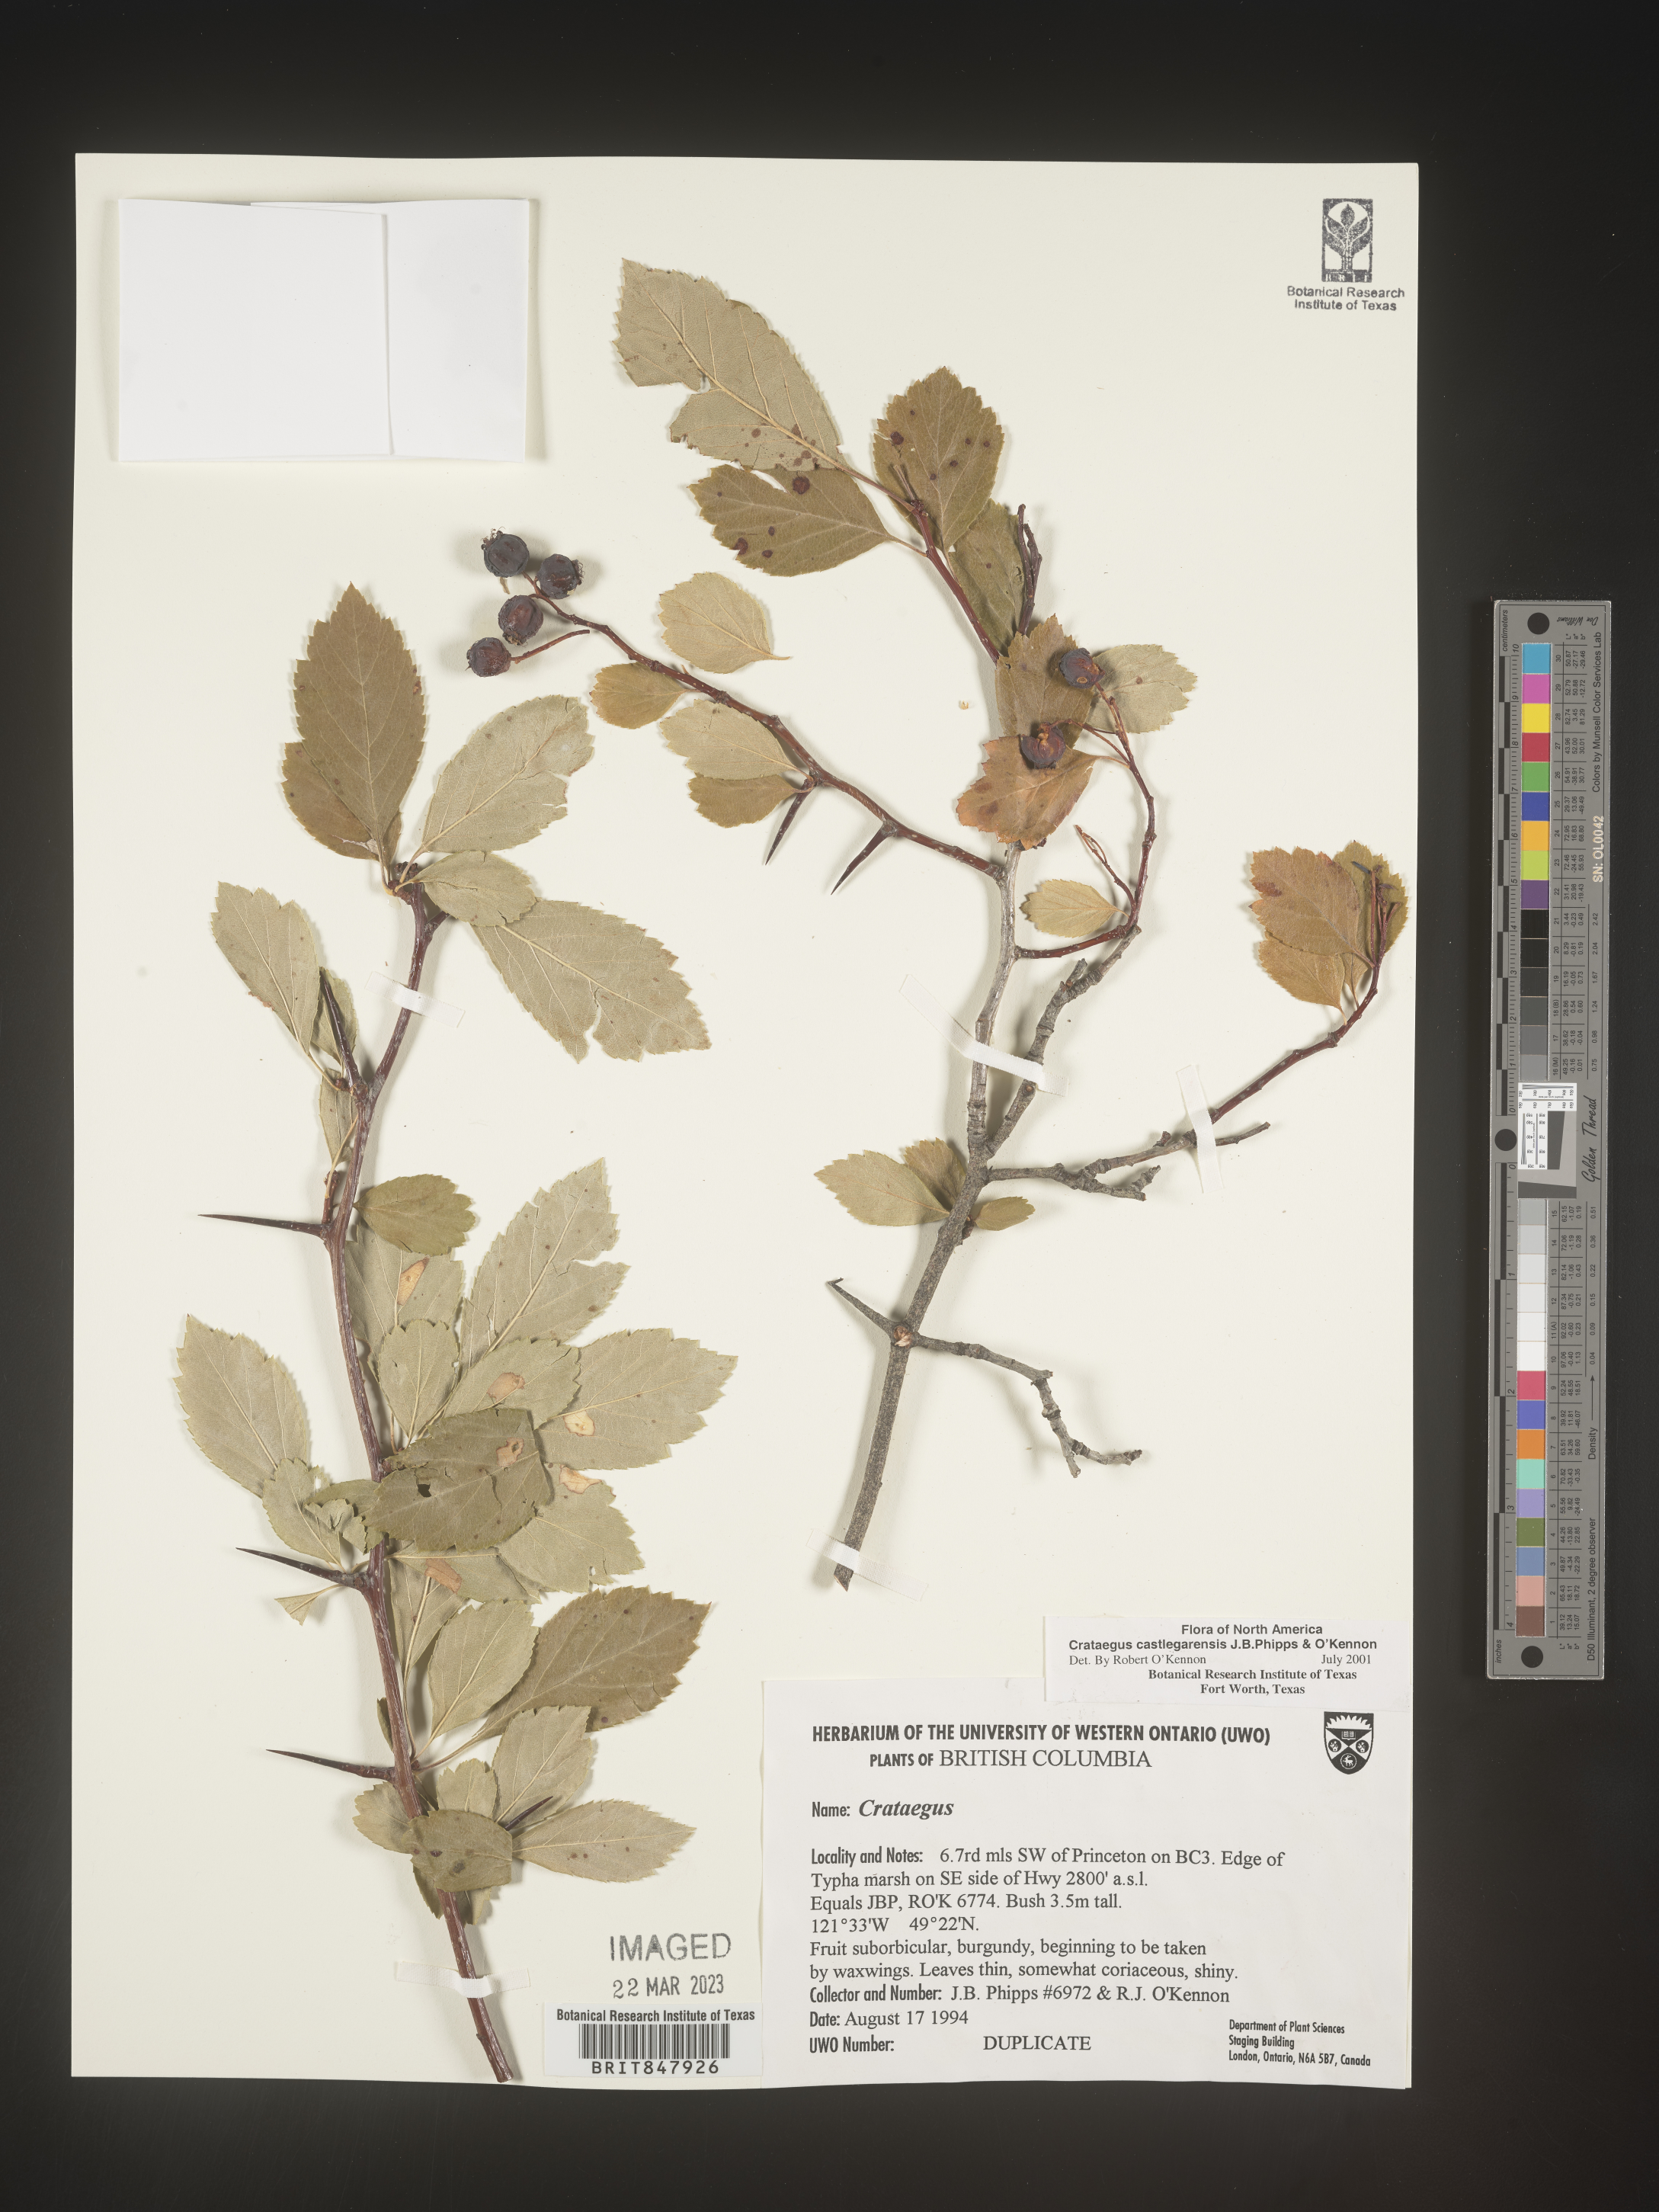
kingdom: Plantae
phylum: Tracheophyta
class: Magnoliopsida
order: Rosales
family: Rosaceae
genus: Crataegus
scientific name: Crataegus castlegarensis
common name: Castlegar hawthorn
